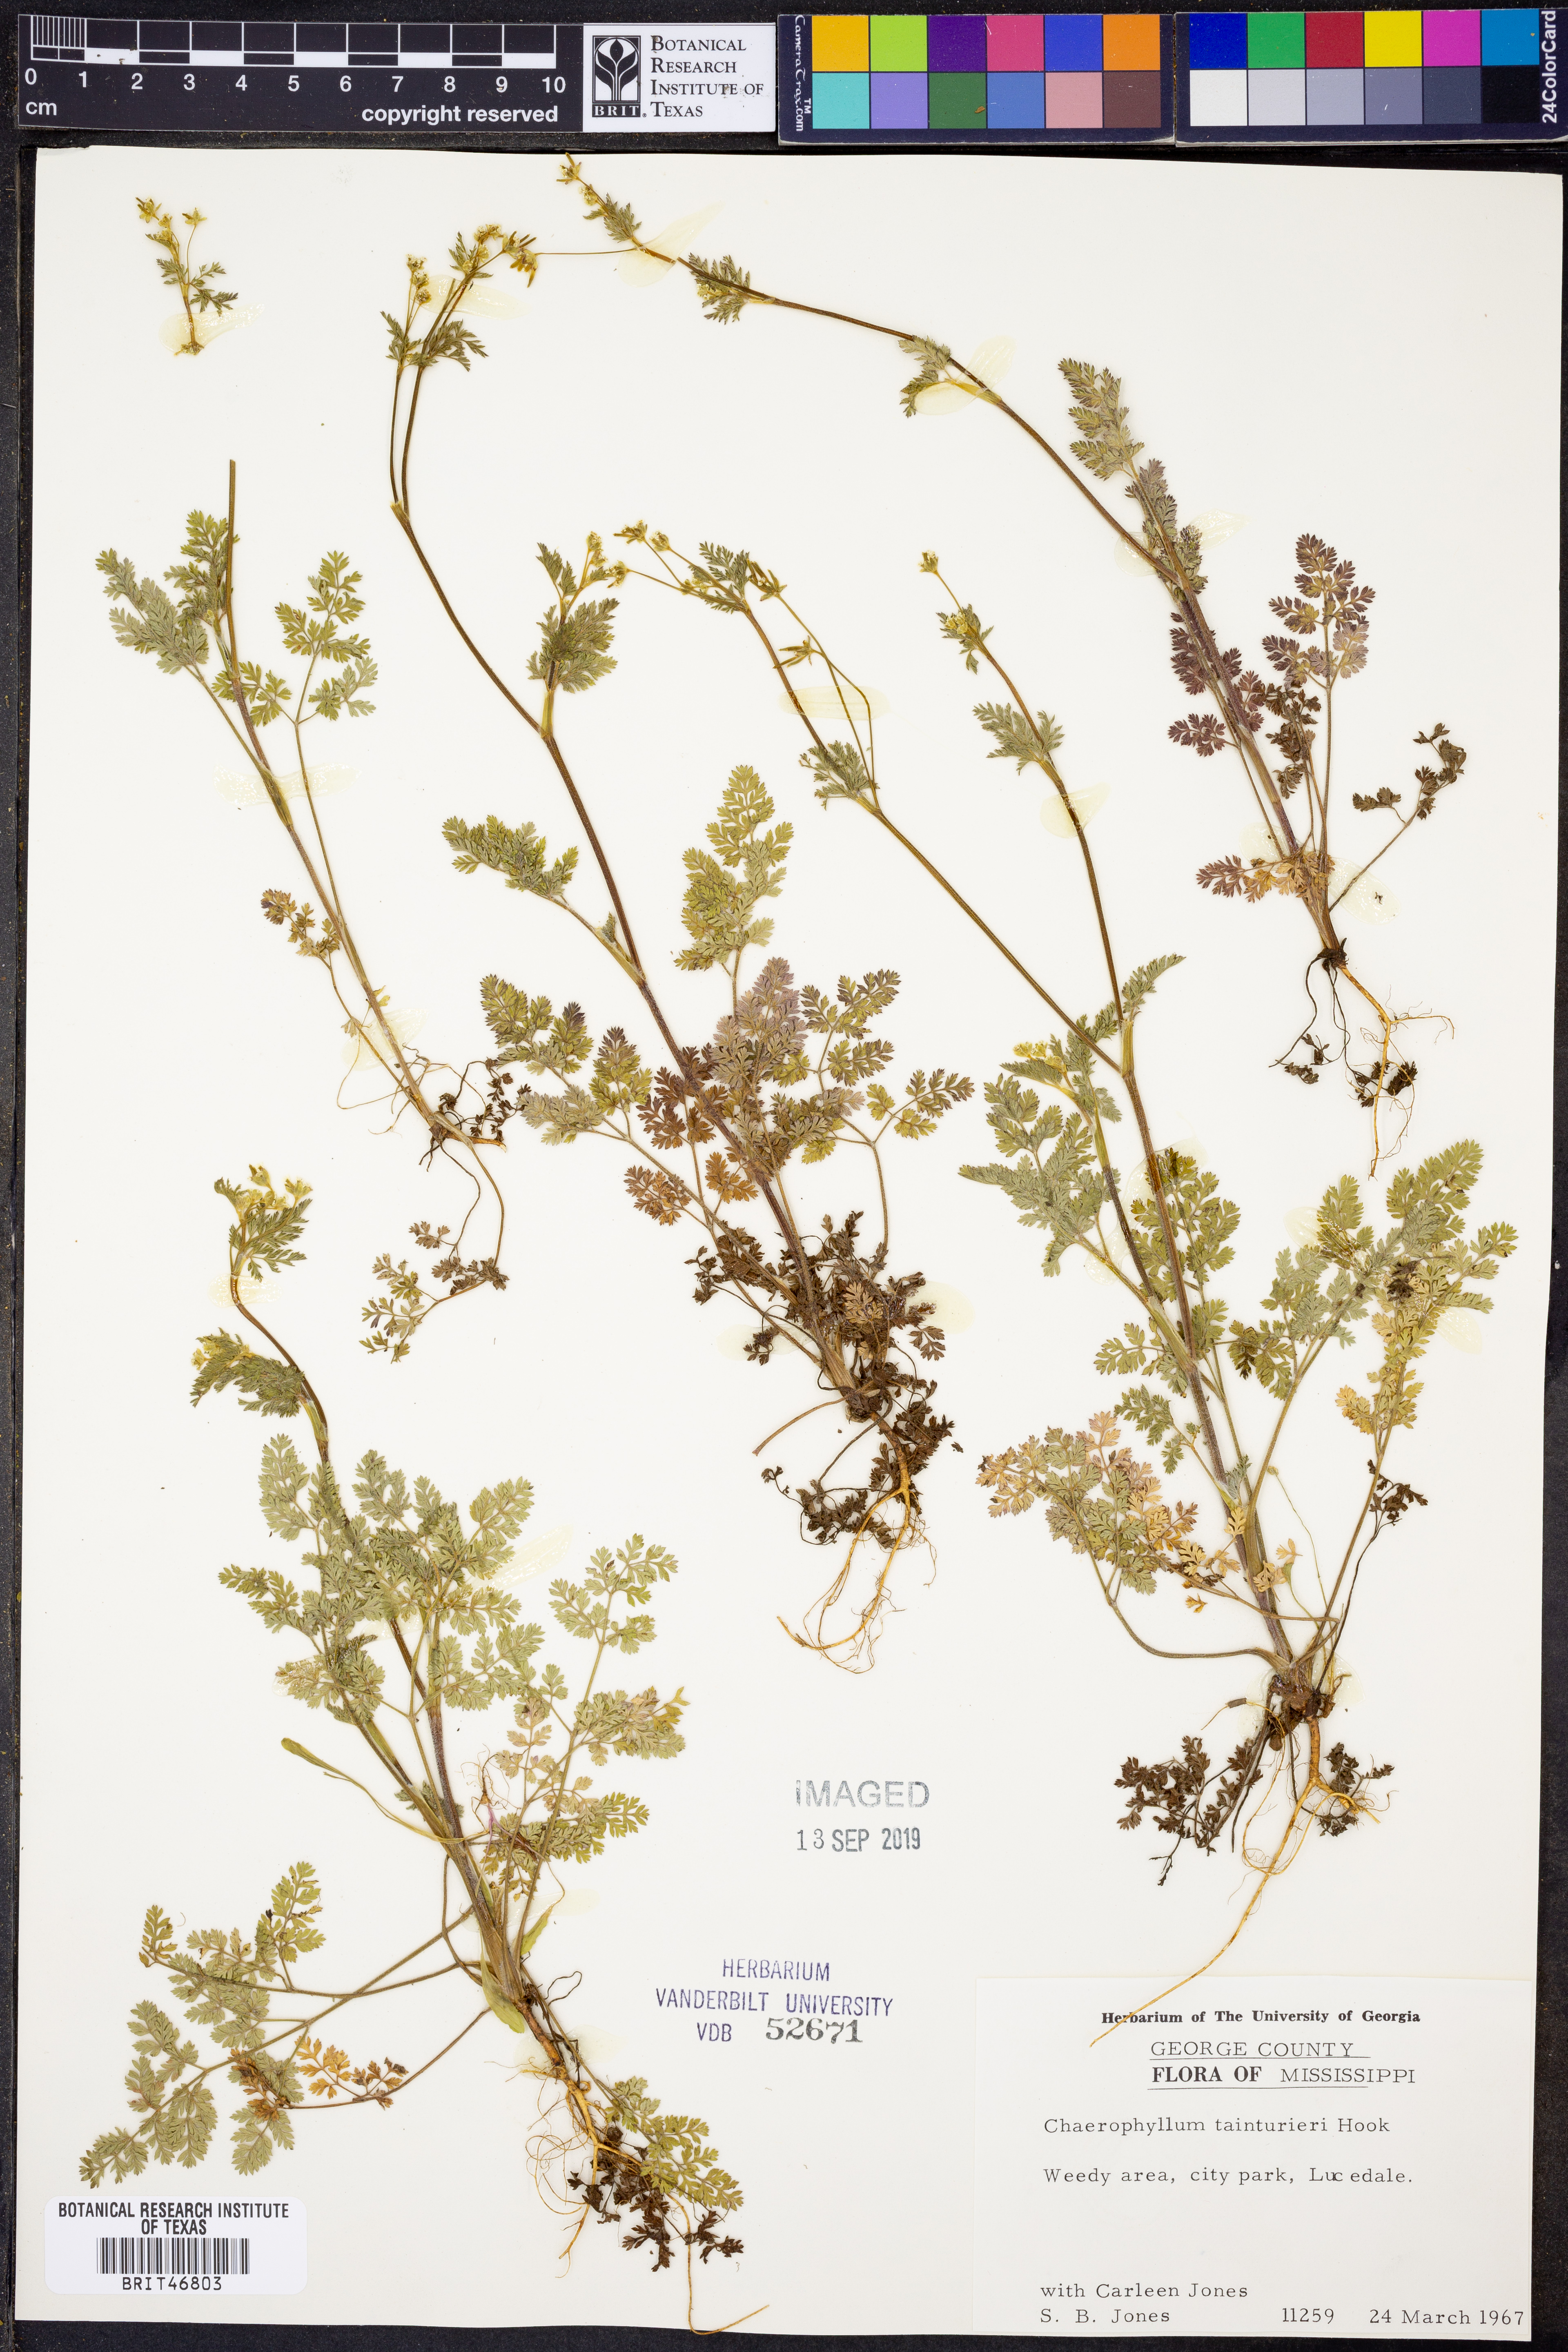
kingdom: Plantae
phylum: Tracheophyta
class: Magnoliopsida
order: Apiales
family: Apiaceae
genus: Chaerophyllum
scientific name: Chaerophyllum tainturieri
